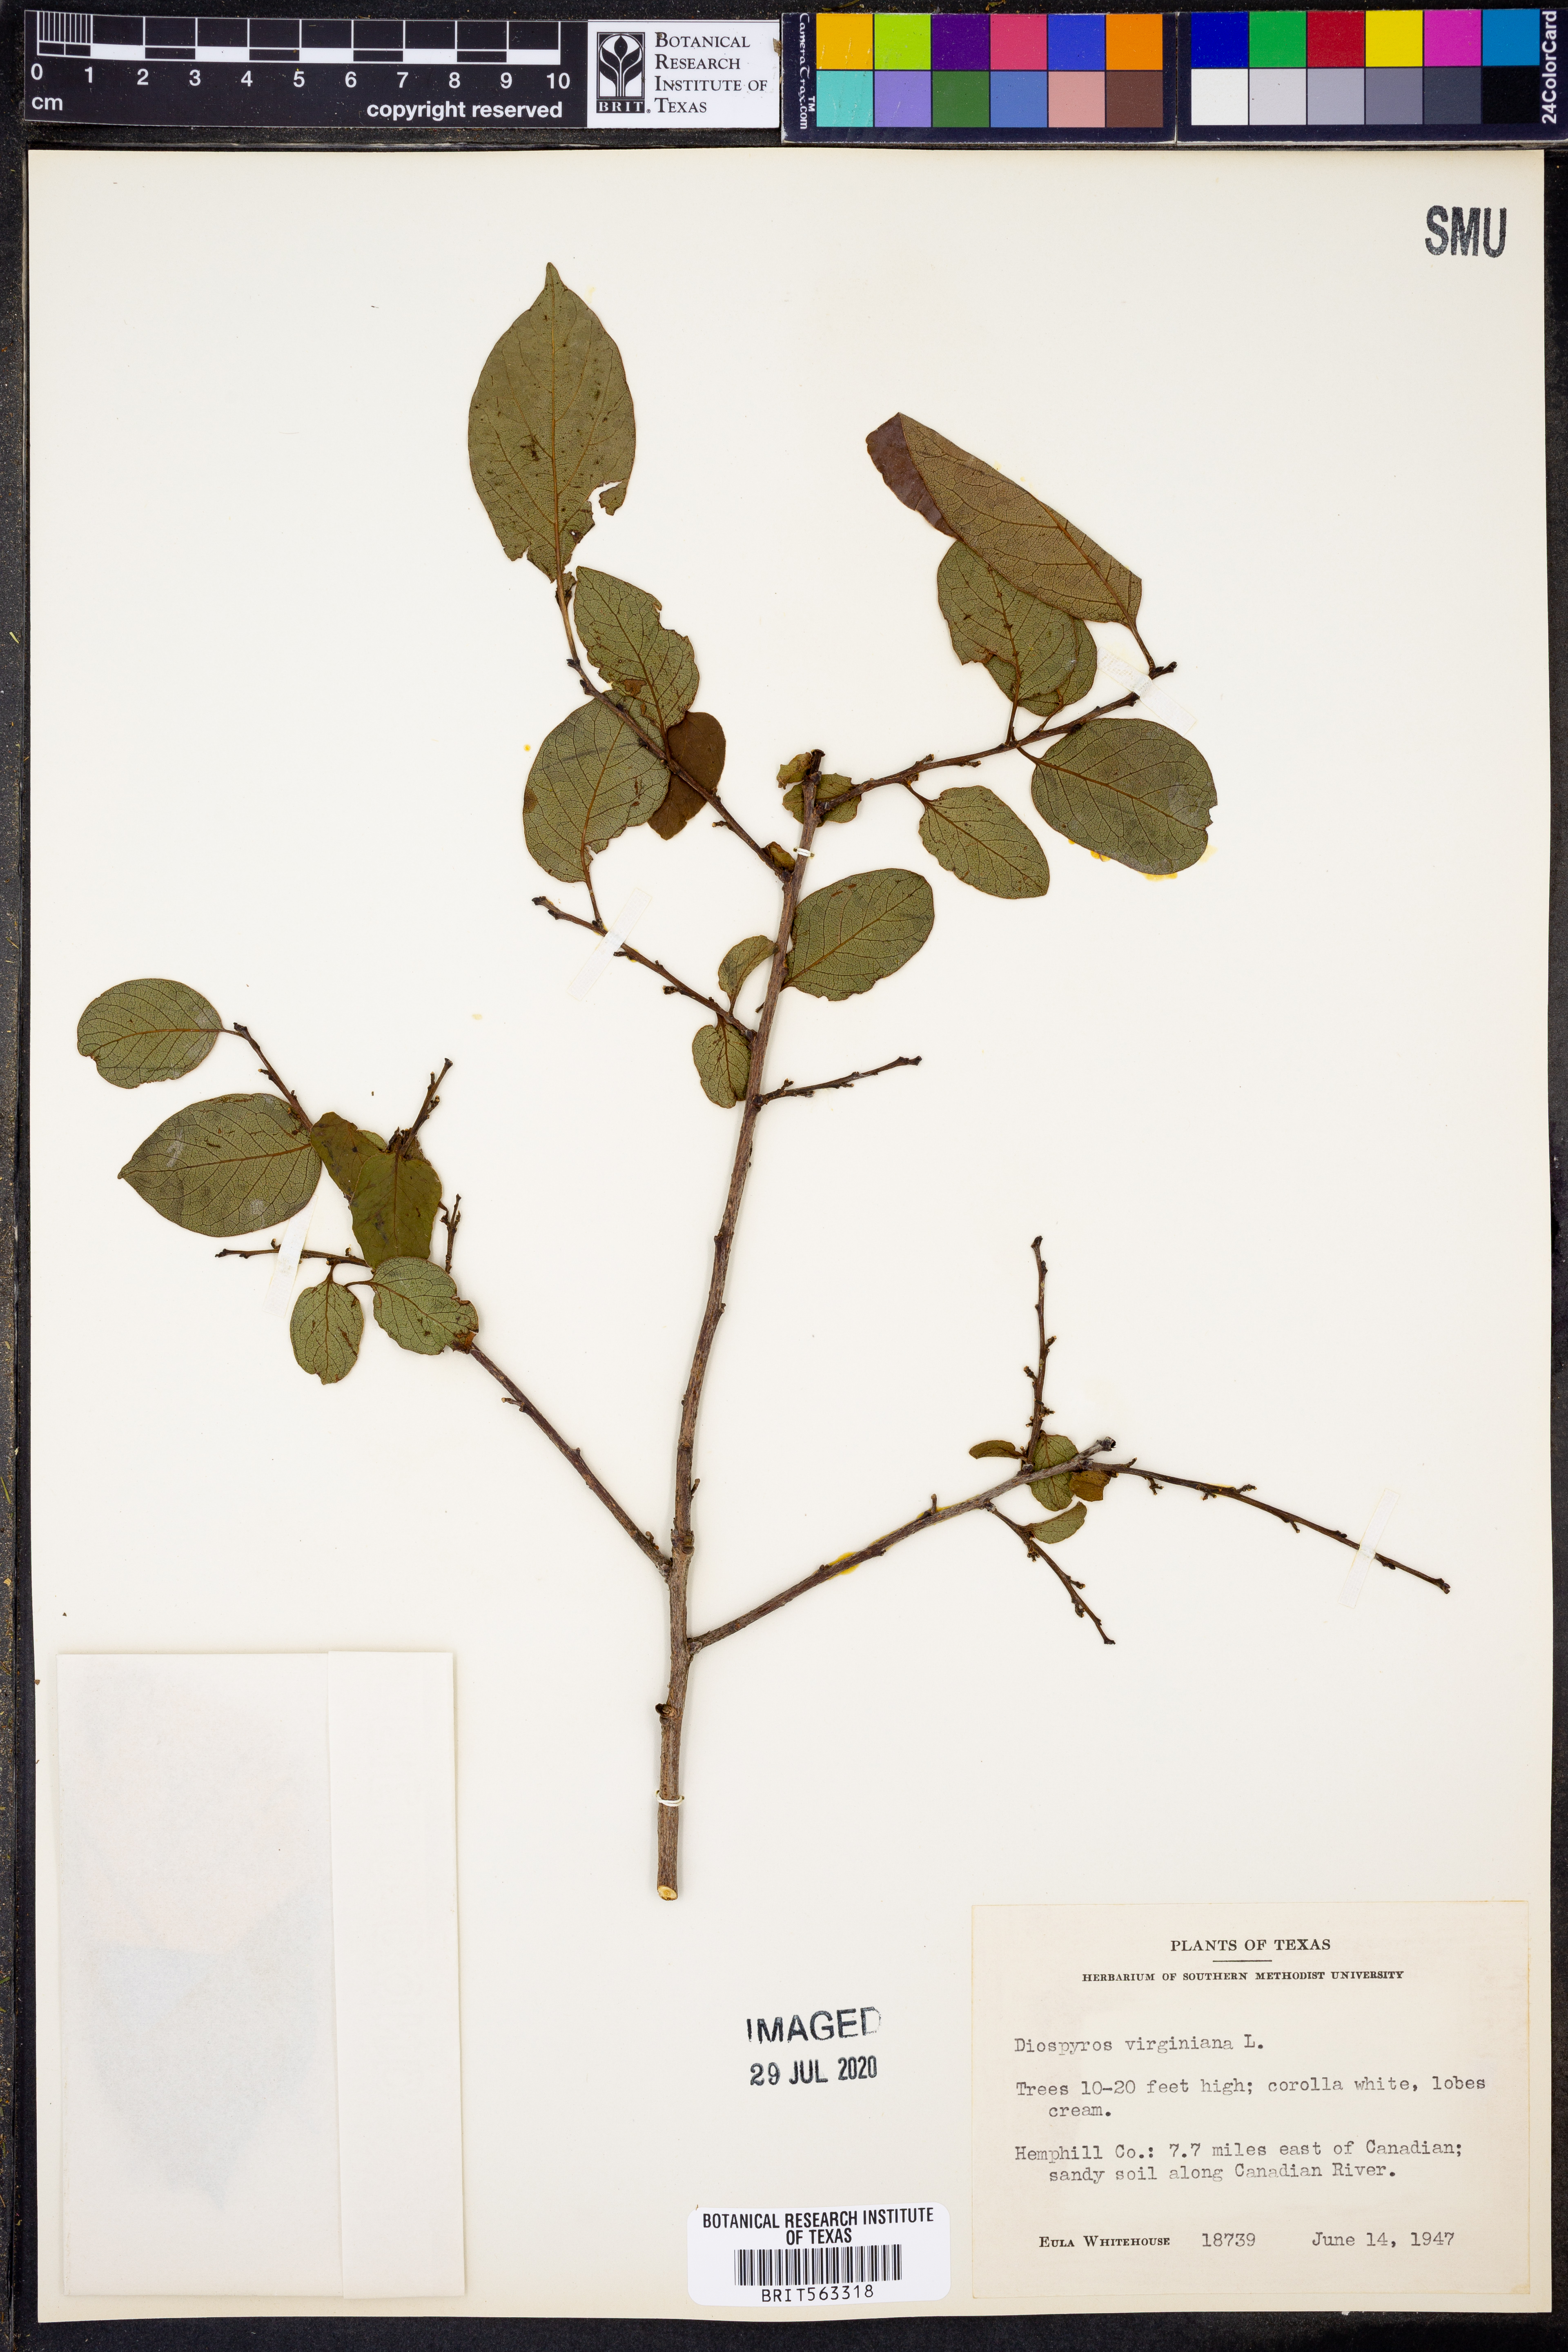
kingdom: Plantae
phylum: Tracheophyta
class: Magnoliopsida
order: Ericales
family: Ebenaceae
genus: Diospyros
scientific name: Diospyros virginiana
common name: Persimmon
